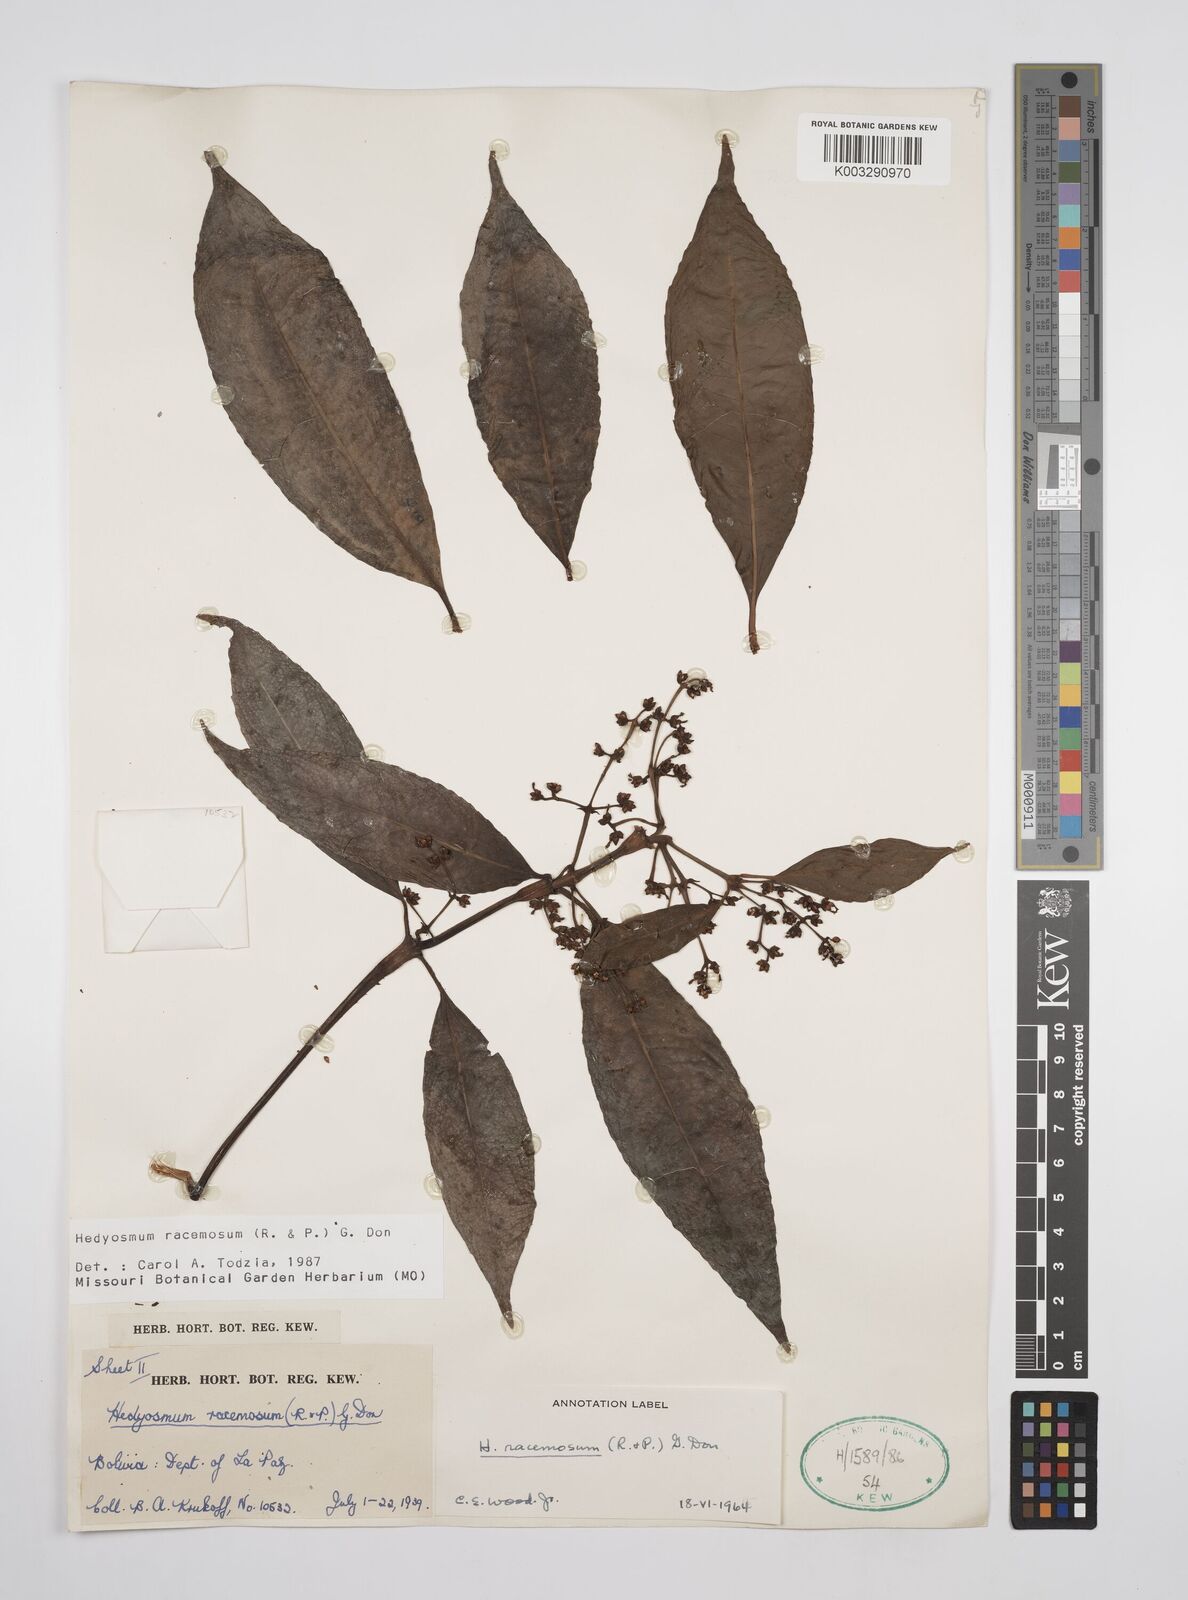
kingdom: Plantae
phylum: Tracheophyta
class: Magnoliopsida
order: Chloranthales
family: Chloranthaceae
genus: Hedyosmum
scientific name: Hedyosmum racemosum
